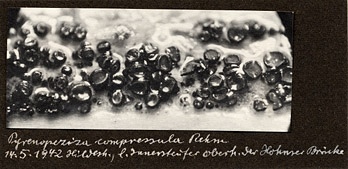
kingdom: Fungi
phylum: Ascomycota
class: Leotiomycetes
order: Helotiales
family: Ploettnerulaceae
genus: Pyrenopeziza
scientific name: Pyrenopeziza compressula
